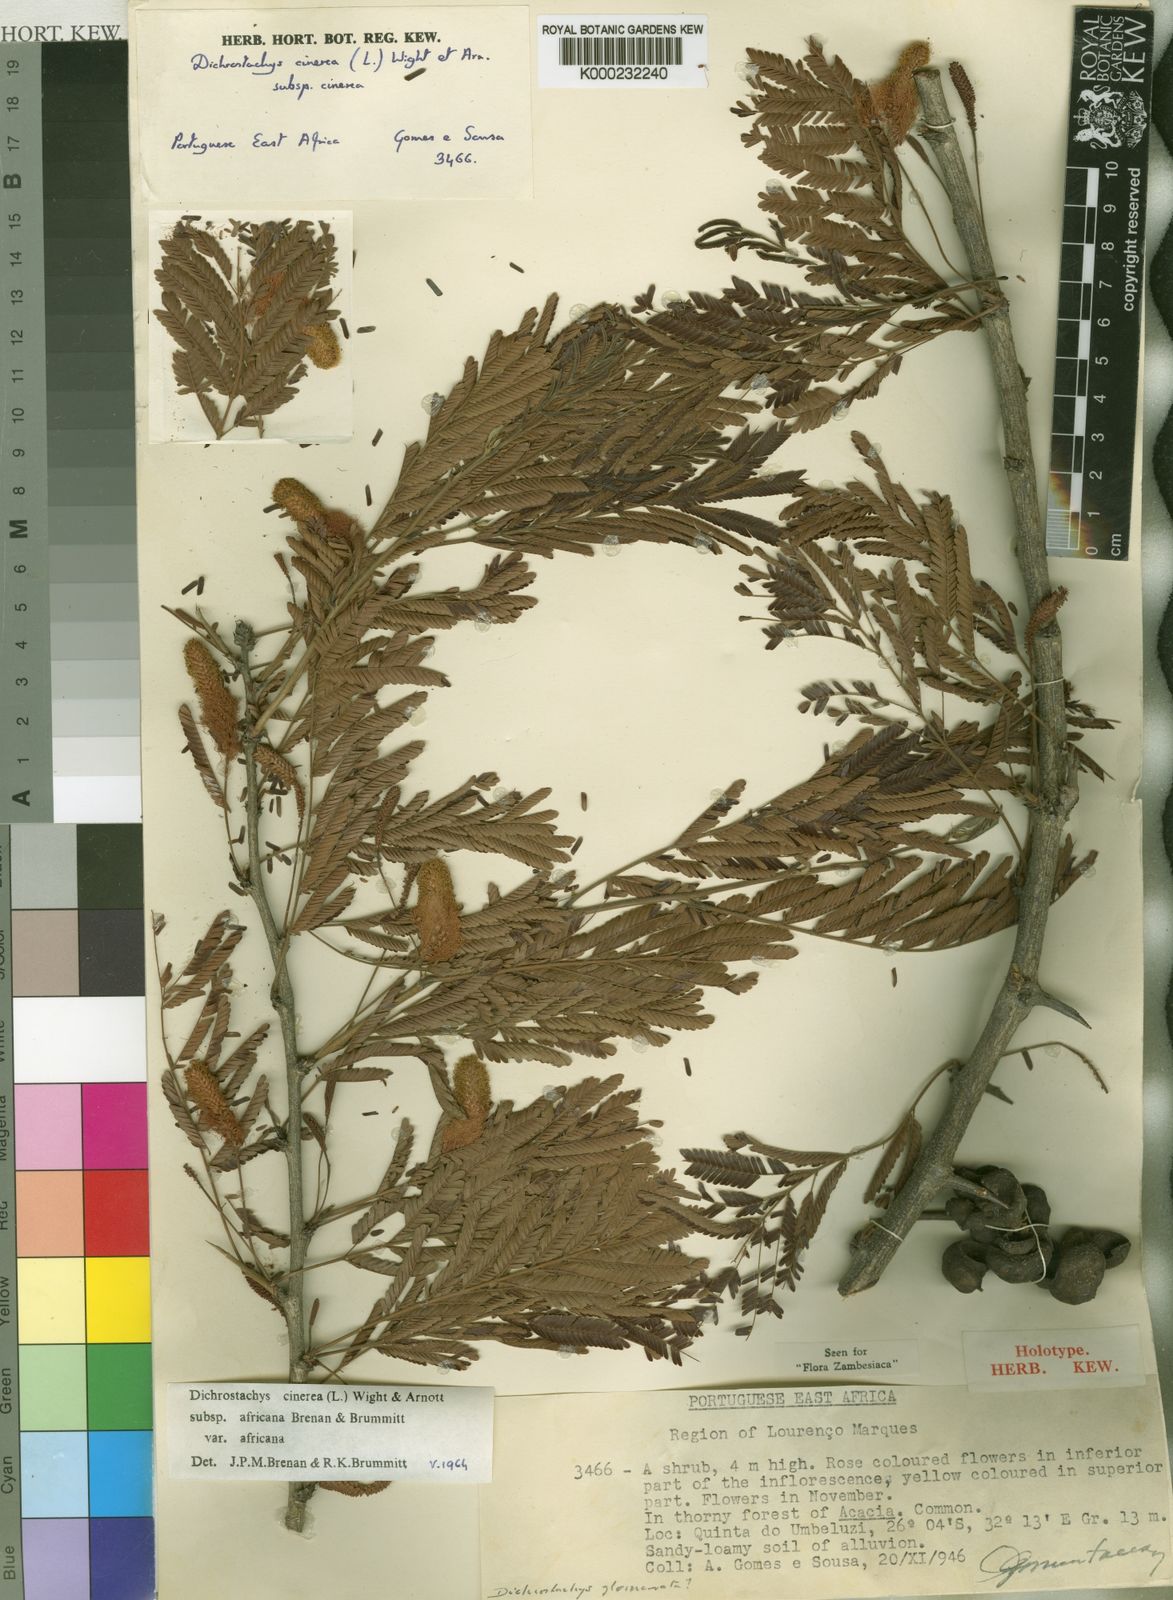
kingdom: Plantae
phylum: Tracheophyta
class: Magnoliopsida
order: Fabales
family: Fabaceae
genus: Dichrostachys
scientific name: Dichrostachys cinerea
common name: Sicklebush
